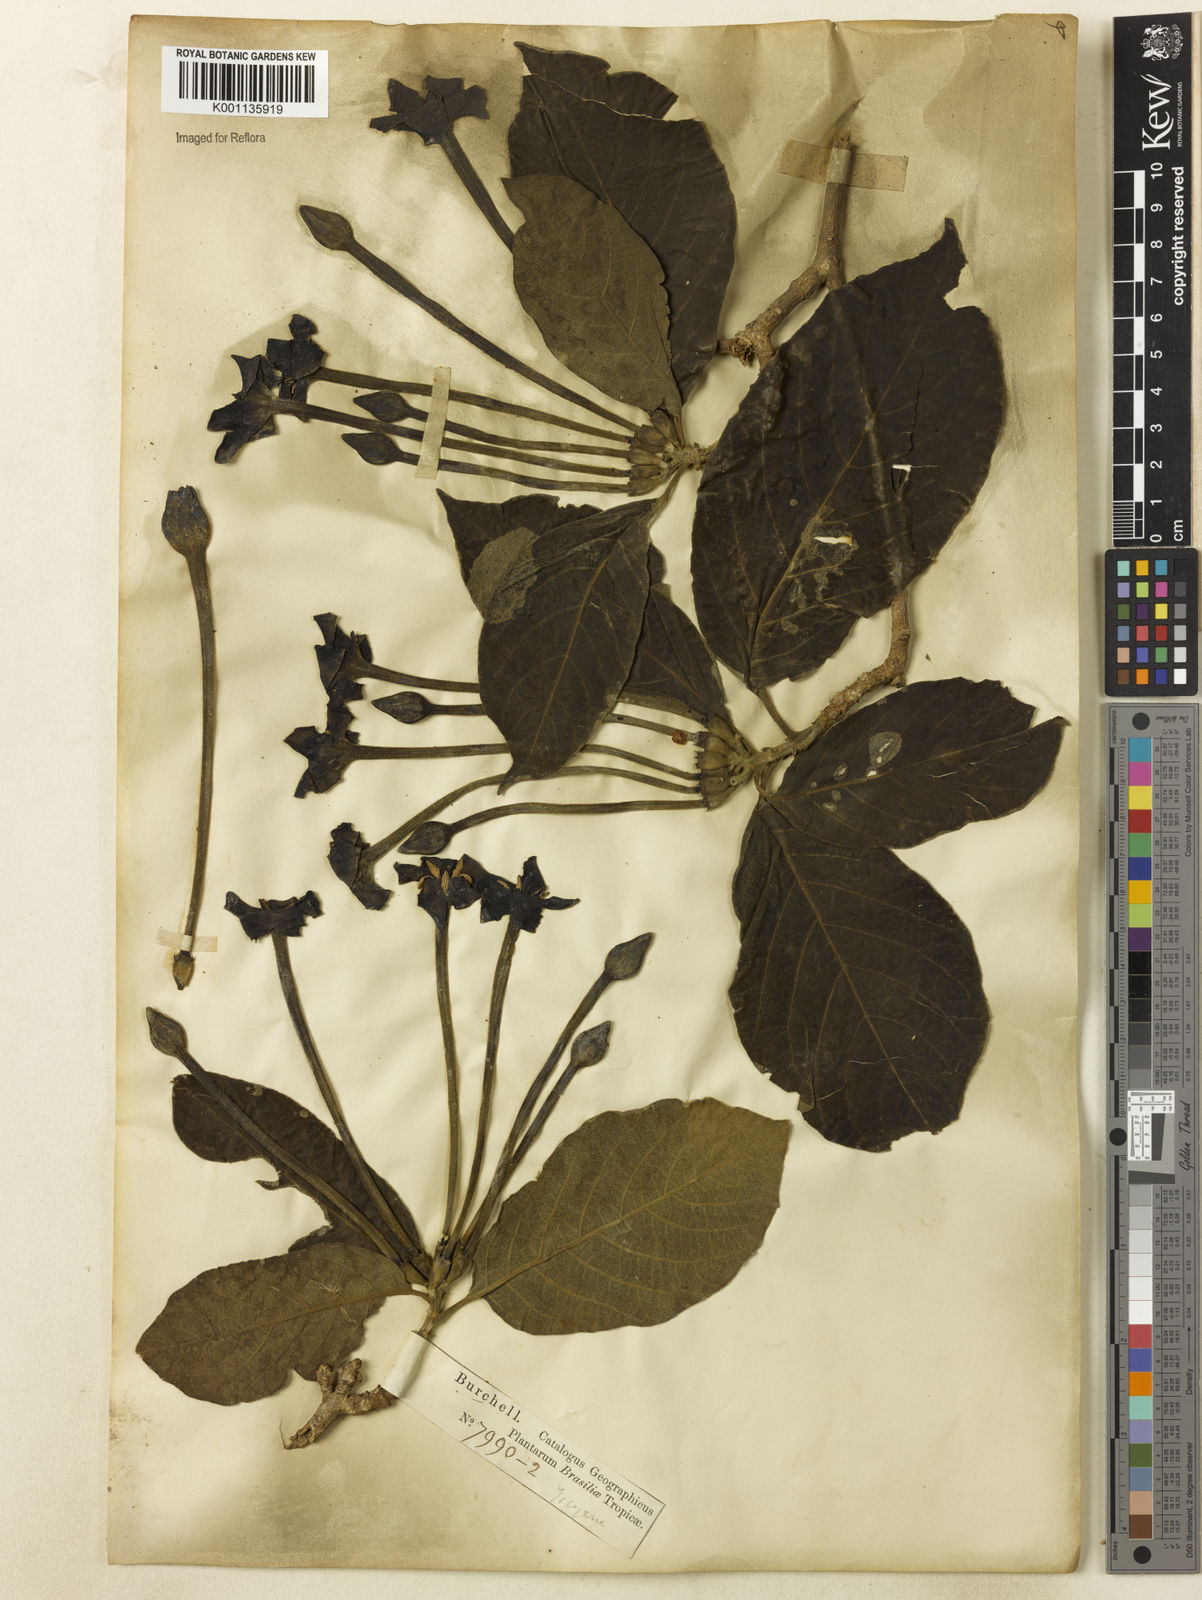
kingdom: Plantae
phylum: Tracheophyta
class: Magnoliopsida
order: Gentianales
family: Rubiaceae
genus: Tocoyena
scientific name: Tocoyena formosa
